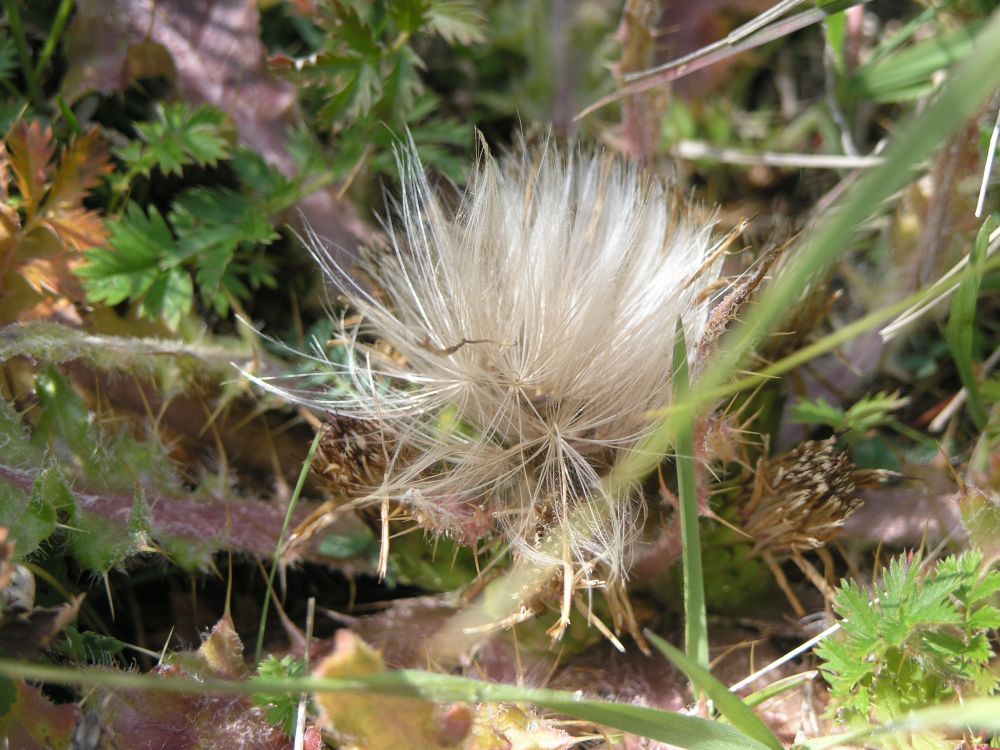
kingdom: Plantae
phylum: Tracheophyta
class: Magnoliopsida
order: Asterales
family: Asteraceae
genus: Cirsium
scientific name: Cirsium esculentum
